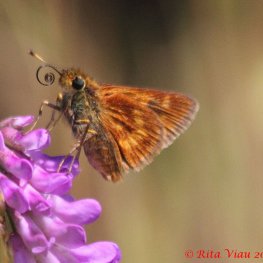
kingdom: Animalia
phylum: Arthropoda
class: Insecta
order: Lepidoptera
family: Hesperiidae
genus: Polites
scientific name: Polites
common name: Long Dash Skipper
